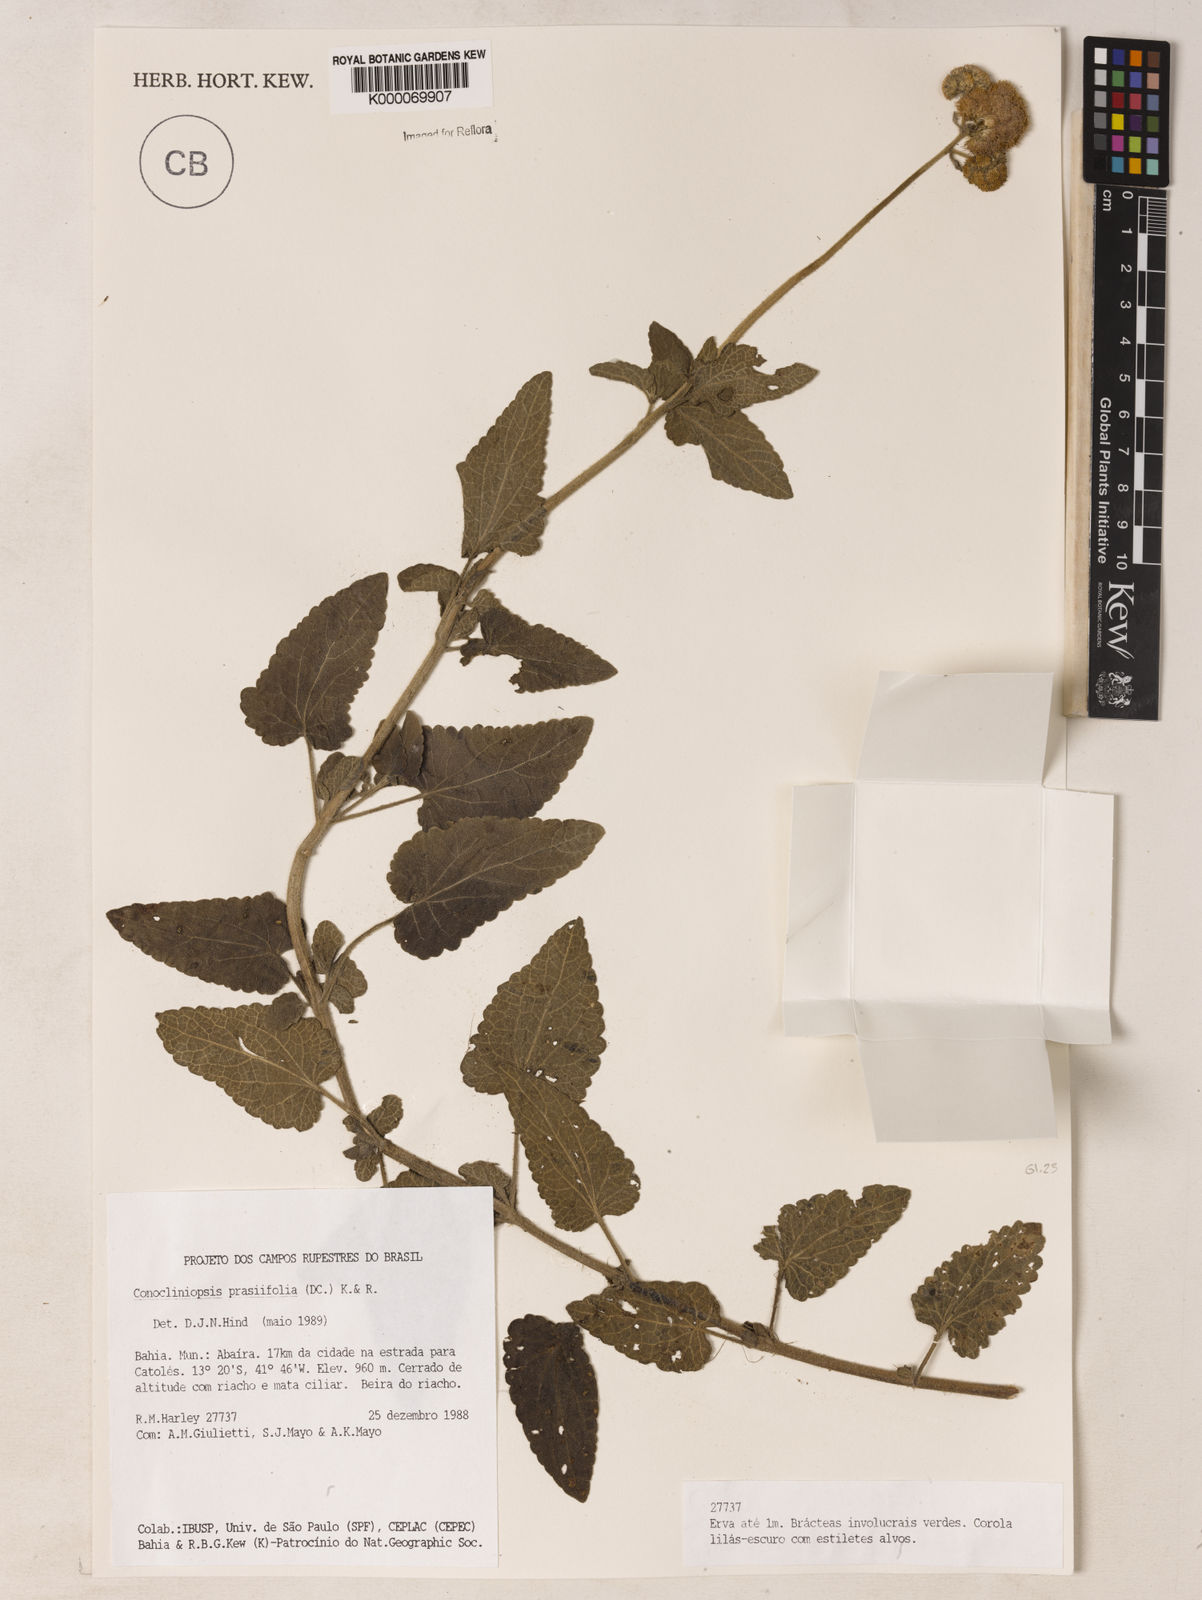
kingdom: Plantae
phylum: Tracheophyta
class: Magnoliopsida
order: Asterales
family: Asteraceae
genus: Conocliniopsis
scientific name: Conocliniopsis
